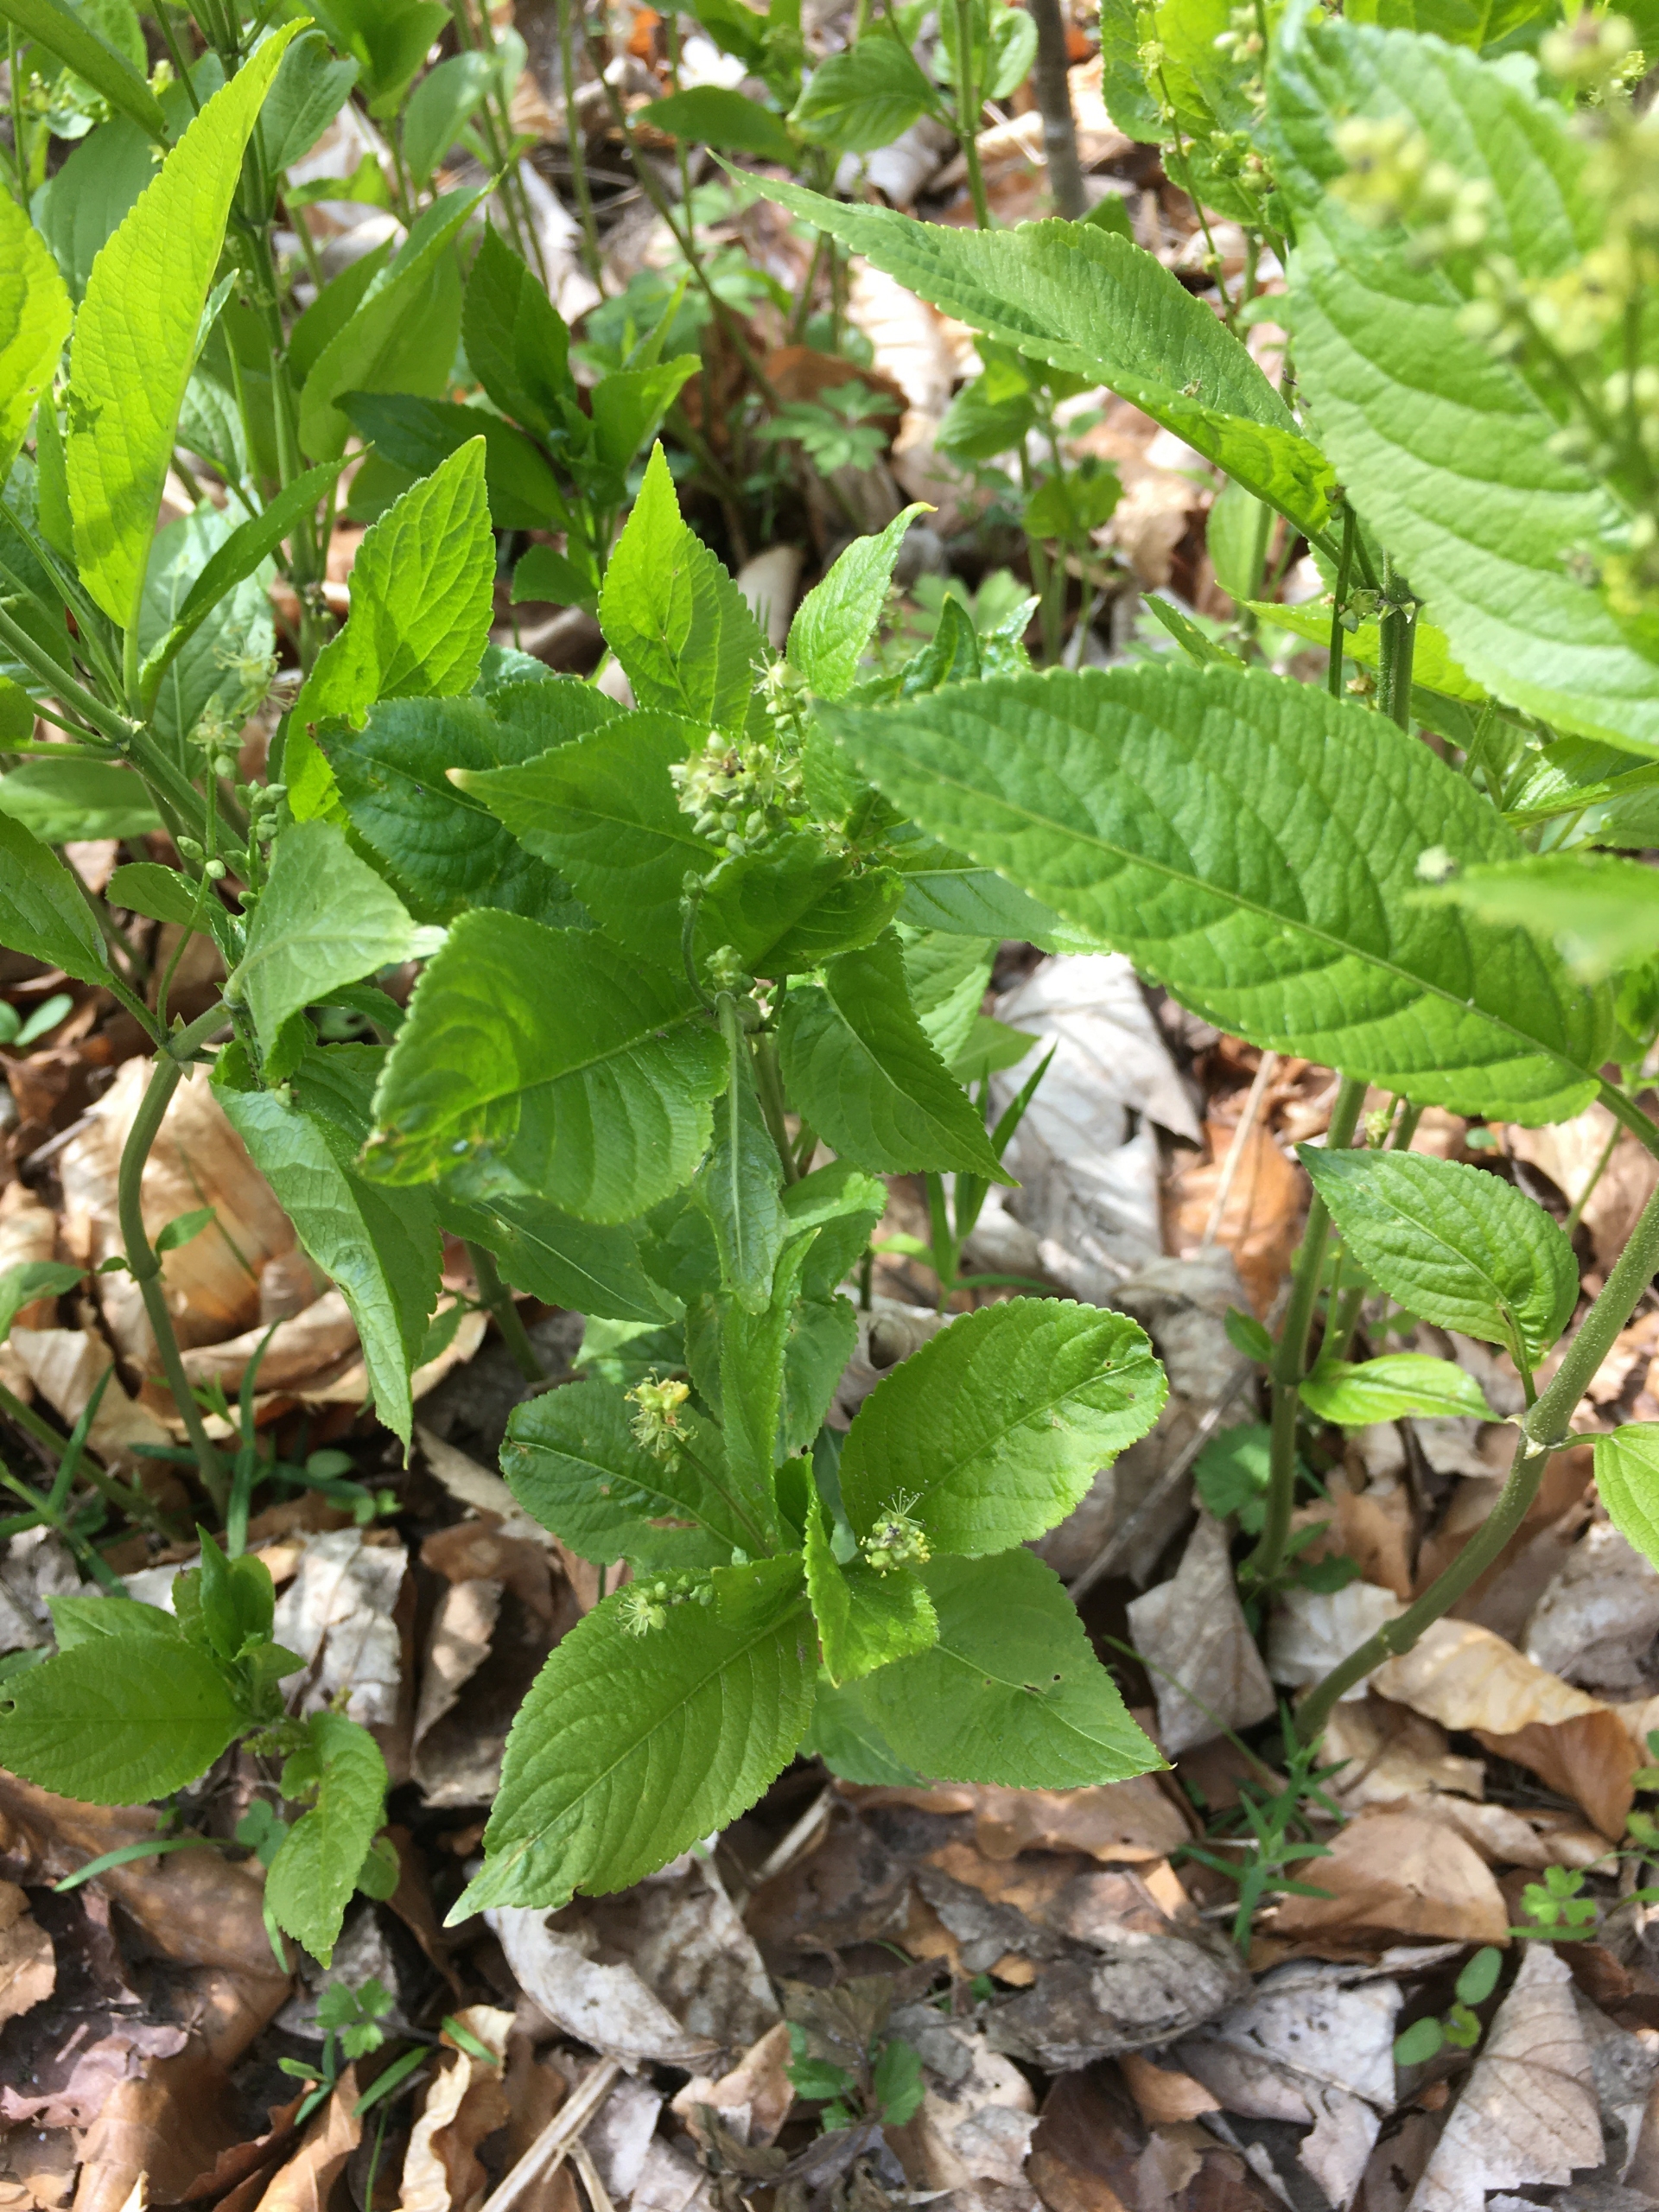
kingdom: Plantae
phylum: Tracheophyta
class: Magnoliopsida
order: Malpighiales
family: Euphorbiaceae
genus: Mercurialis
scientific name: Mercurialis perennis
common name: Almindelig bingelurt
